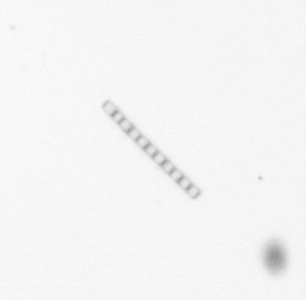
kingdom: Chromista
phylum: Ochrophyta
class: Bacillariophyceae
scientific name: Bacillariophyceae
